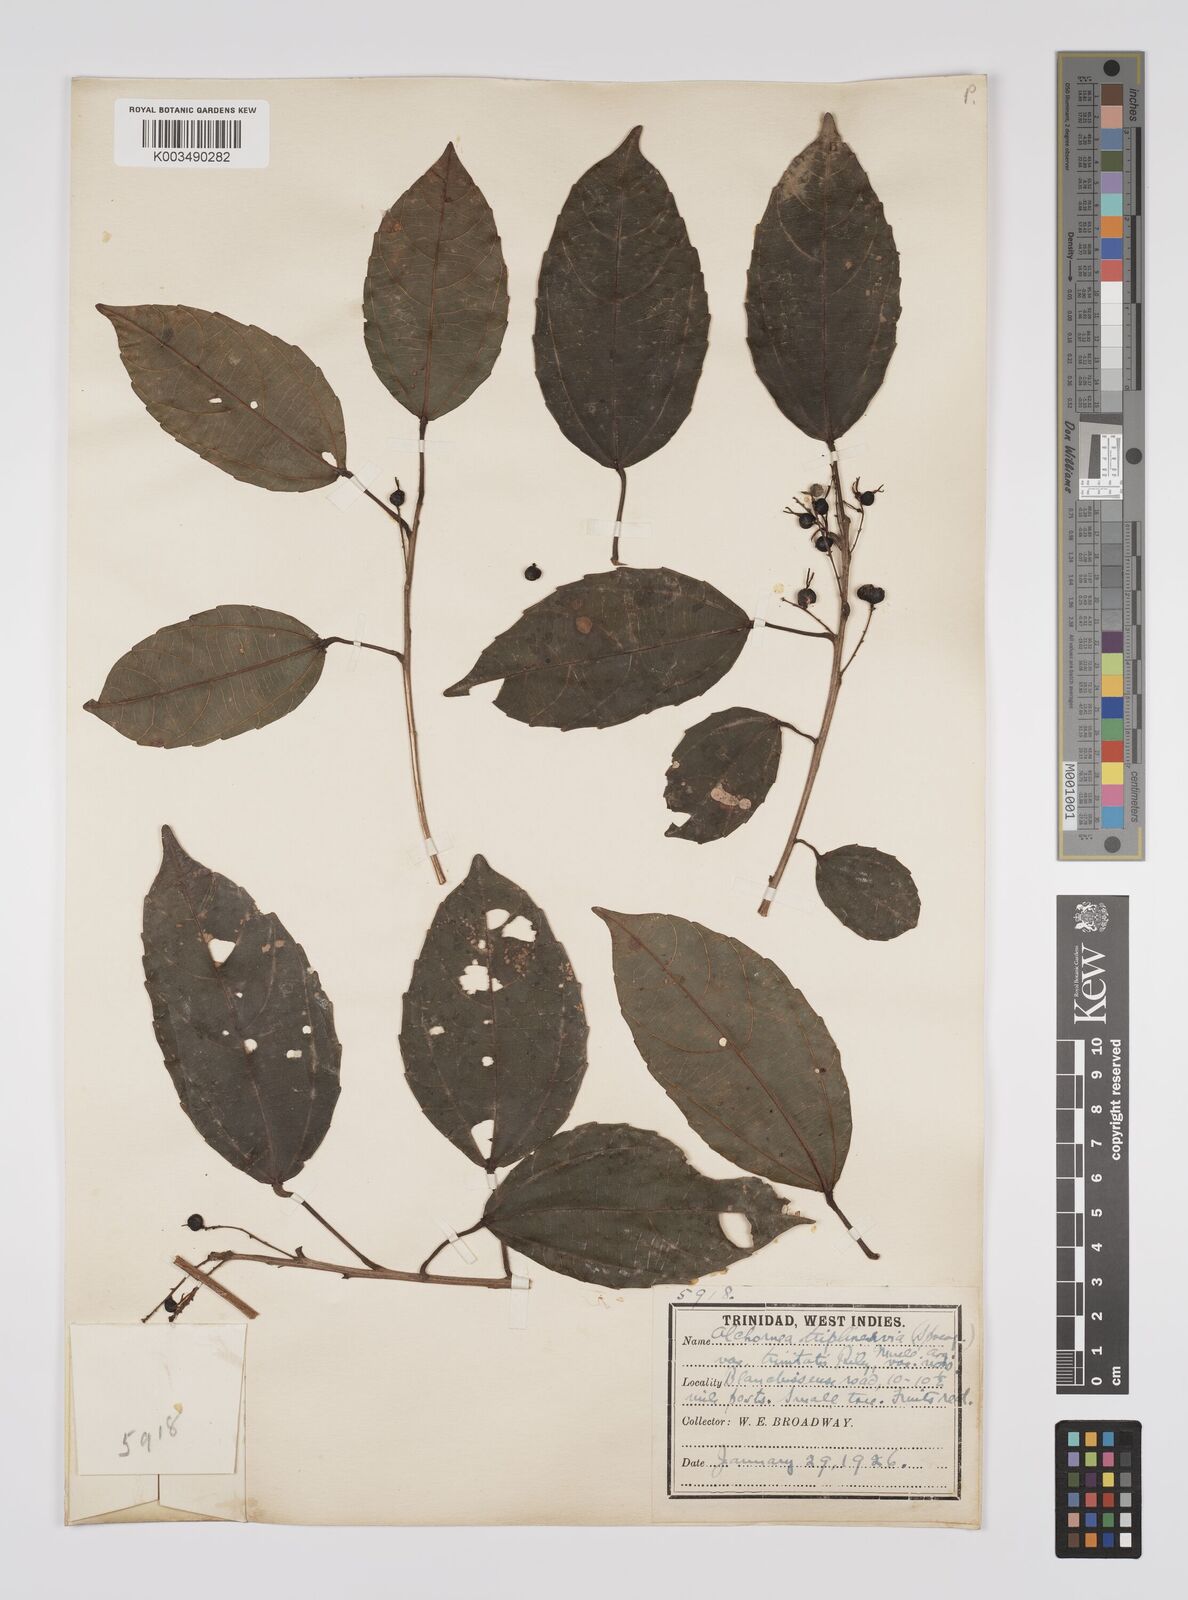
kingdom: Plantae
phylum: Tracheophyta
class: Magnoliopsida
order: Malpighiales
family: Euphorbiaceae
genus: Alchornea
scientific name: Alchornea triplinervia
